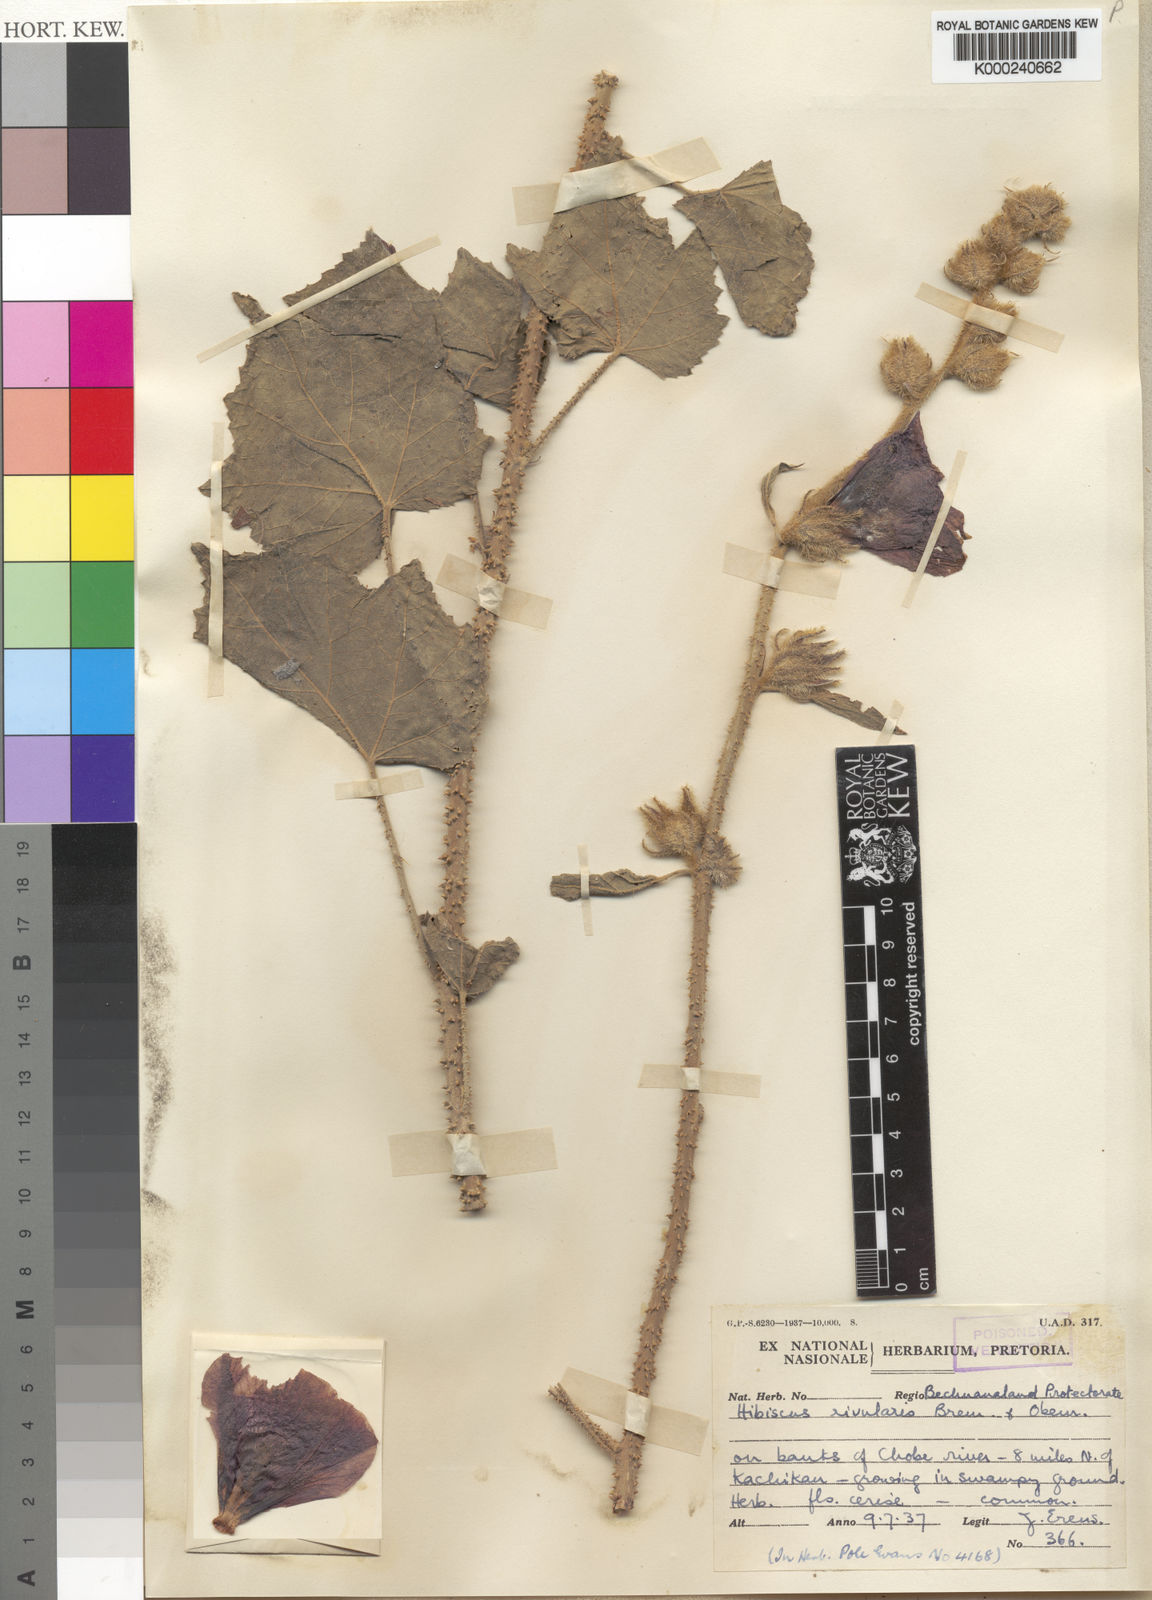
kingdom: Plantae
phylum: Tracheophyta
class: Magnoliopsida
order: Malvales
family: Malvaceae
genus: Hibiscus
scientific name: Hibiscus diversifolius
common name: Cape hibiscus
